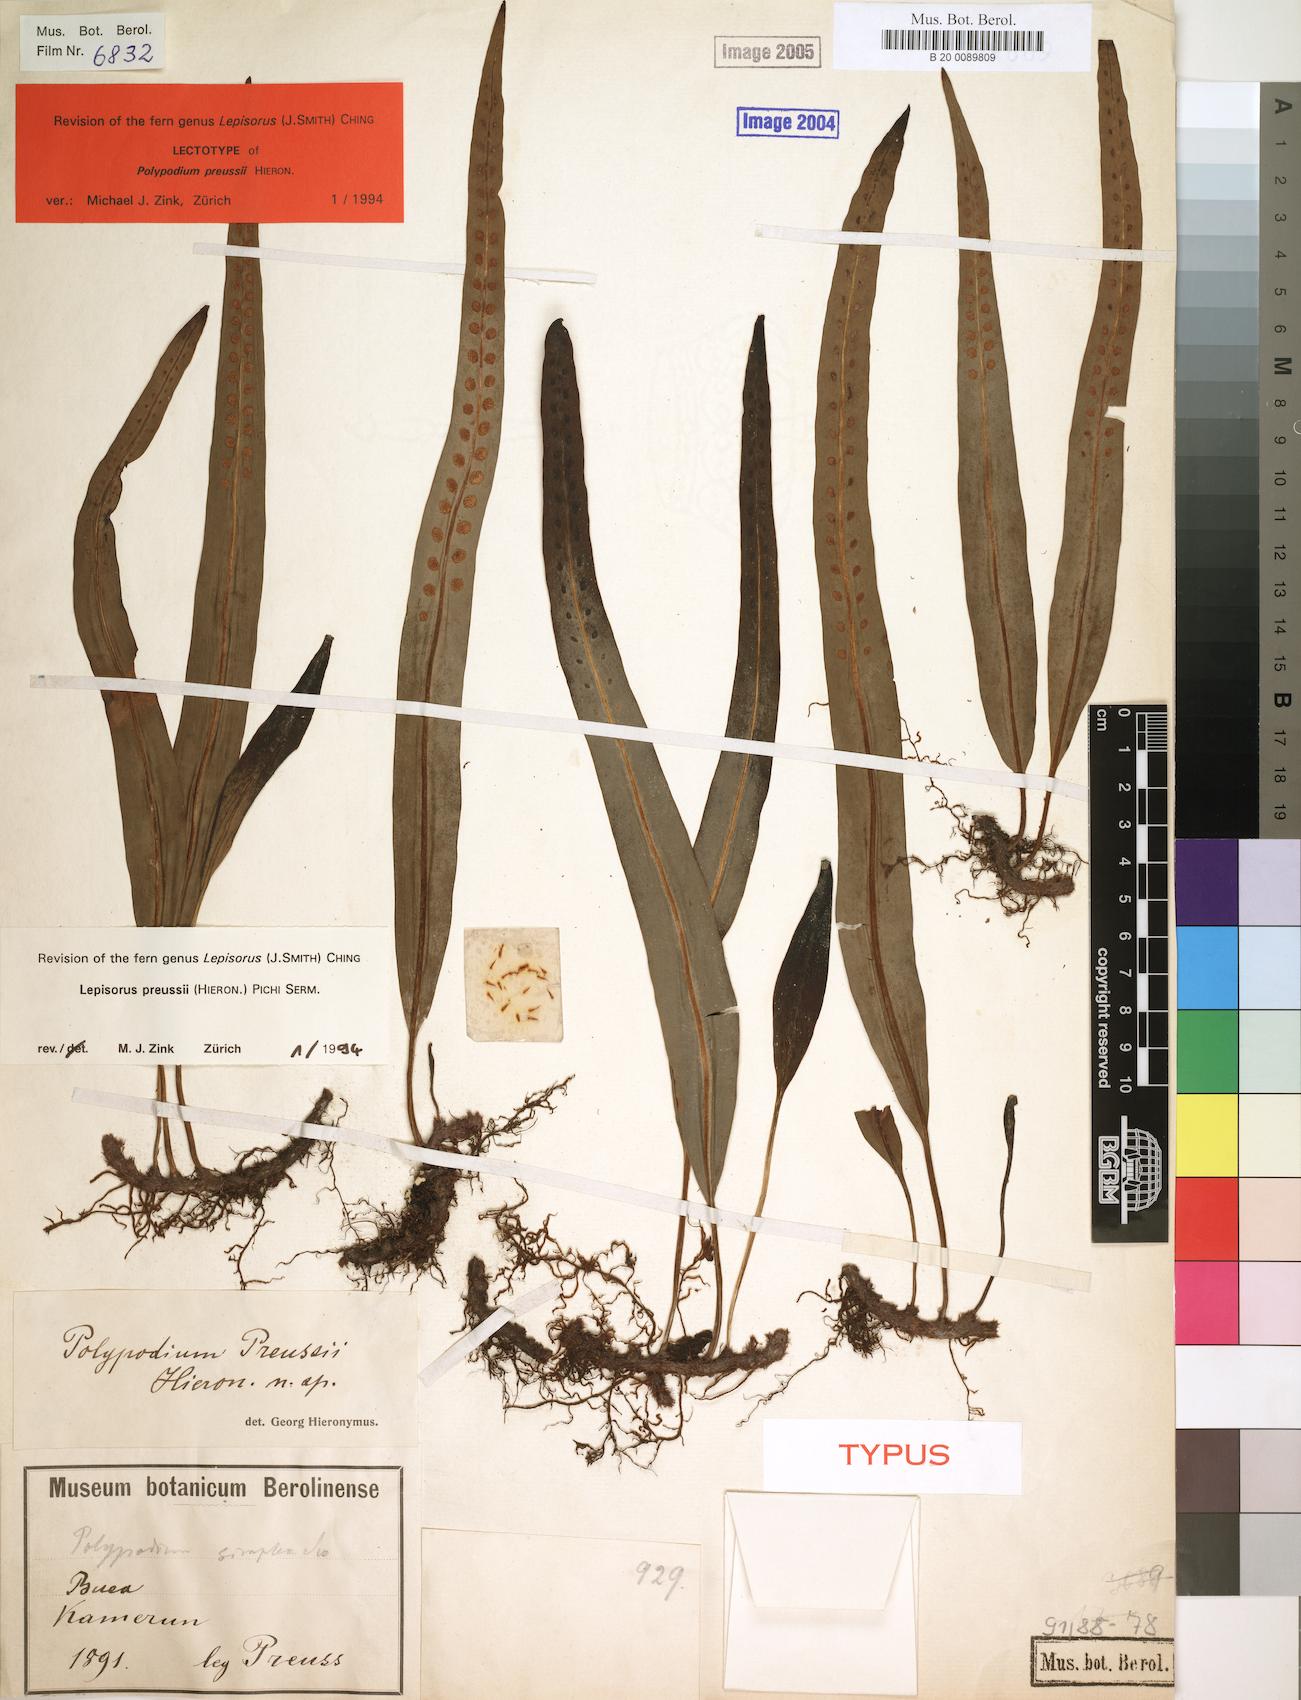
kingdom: Plantae
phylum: Tracheophyta
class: Polypodiopsida
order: Polypodiales
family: Polypodiaceae
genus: Lepisorus
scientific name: Lepisorus excavatus
